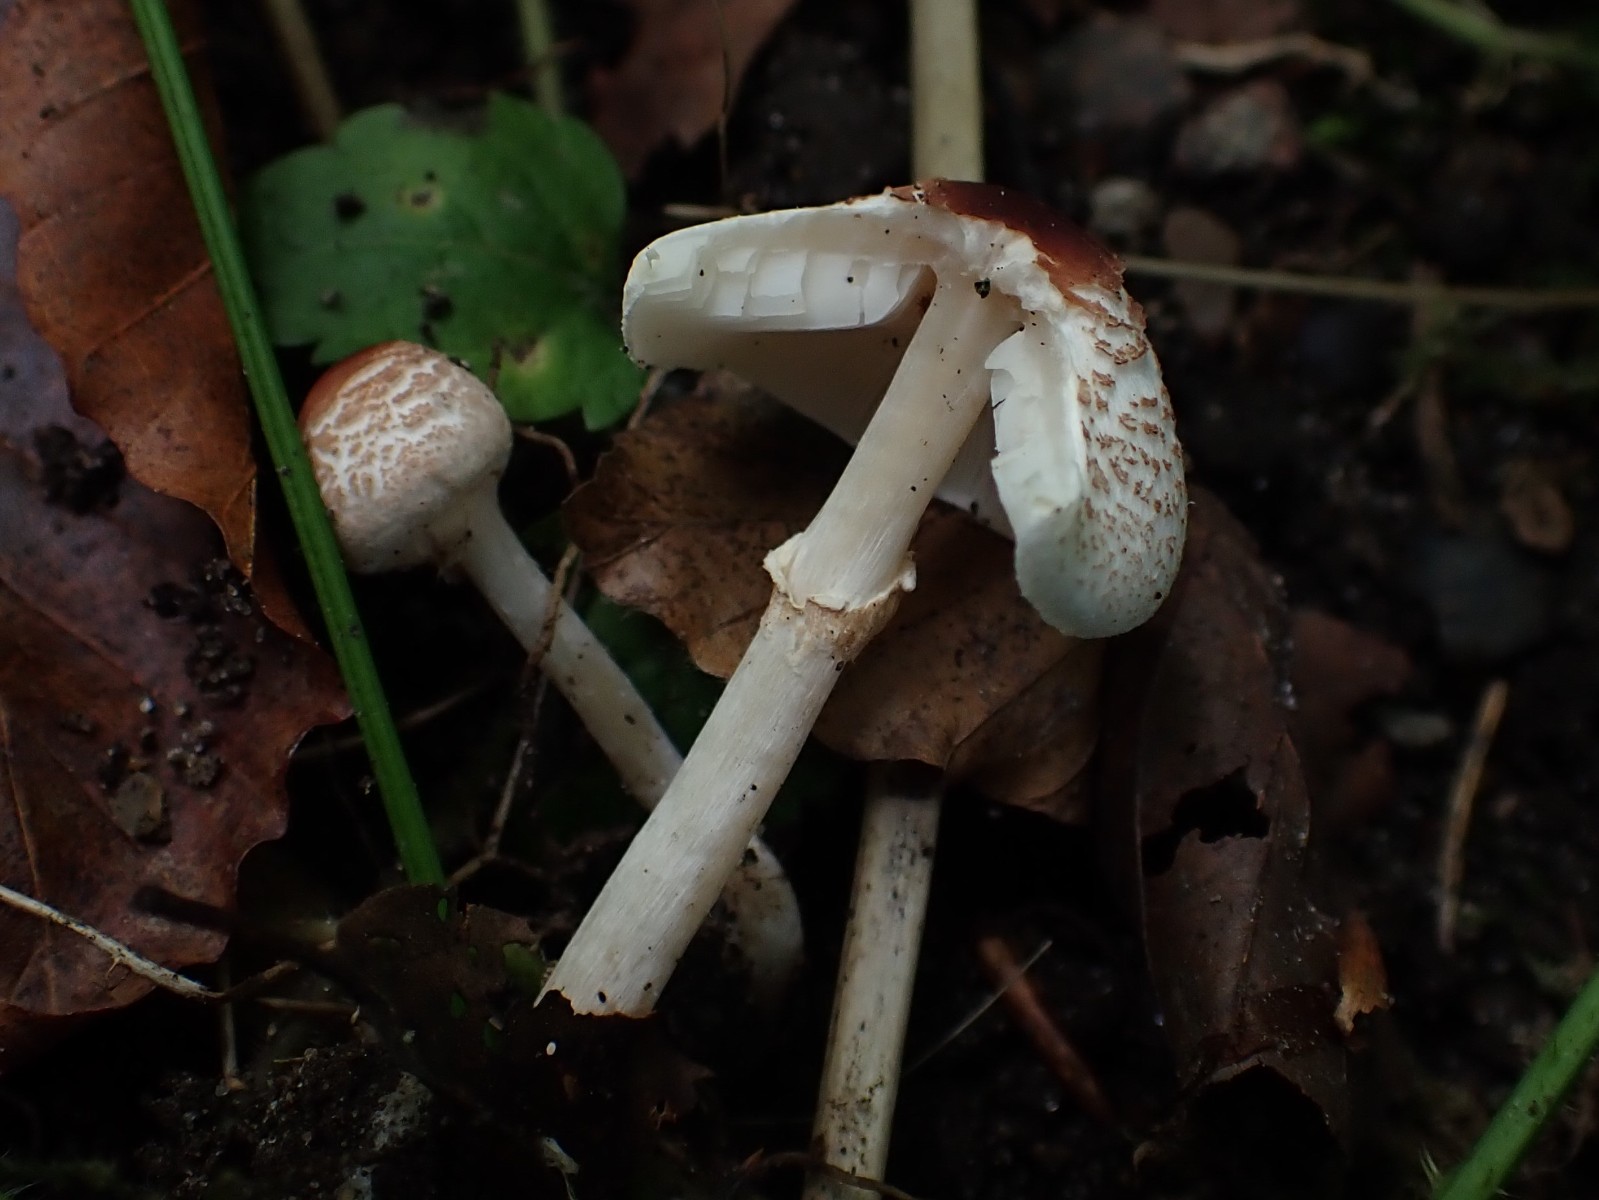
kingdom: Fungi
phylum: Basidiomycota
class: Agaricomycetes
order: Agaricales
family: Agaricaceae
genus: Lepiota
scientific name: Lepiota cristata
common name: stinkende parasolhat
